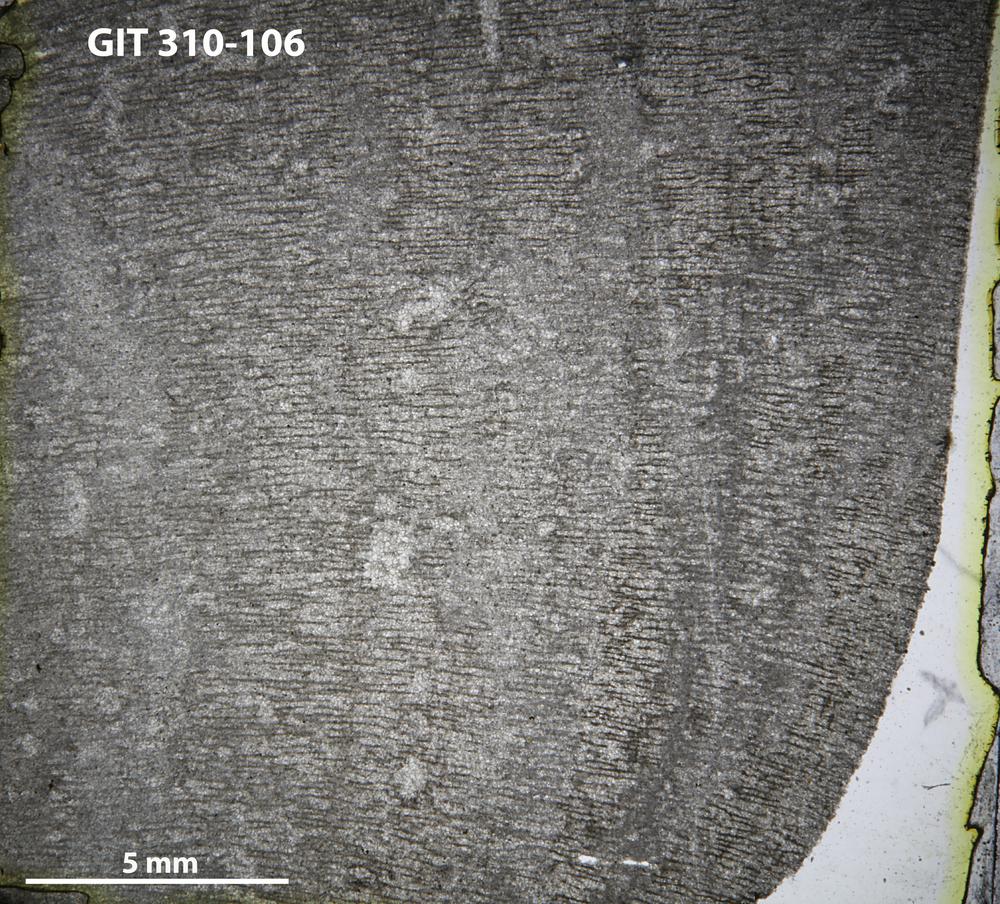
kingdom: Animalia
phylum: Porifera
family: Actinostromatidae
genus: Plectostroma
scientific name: Plectostroma
